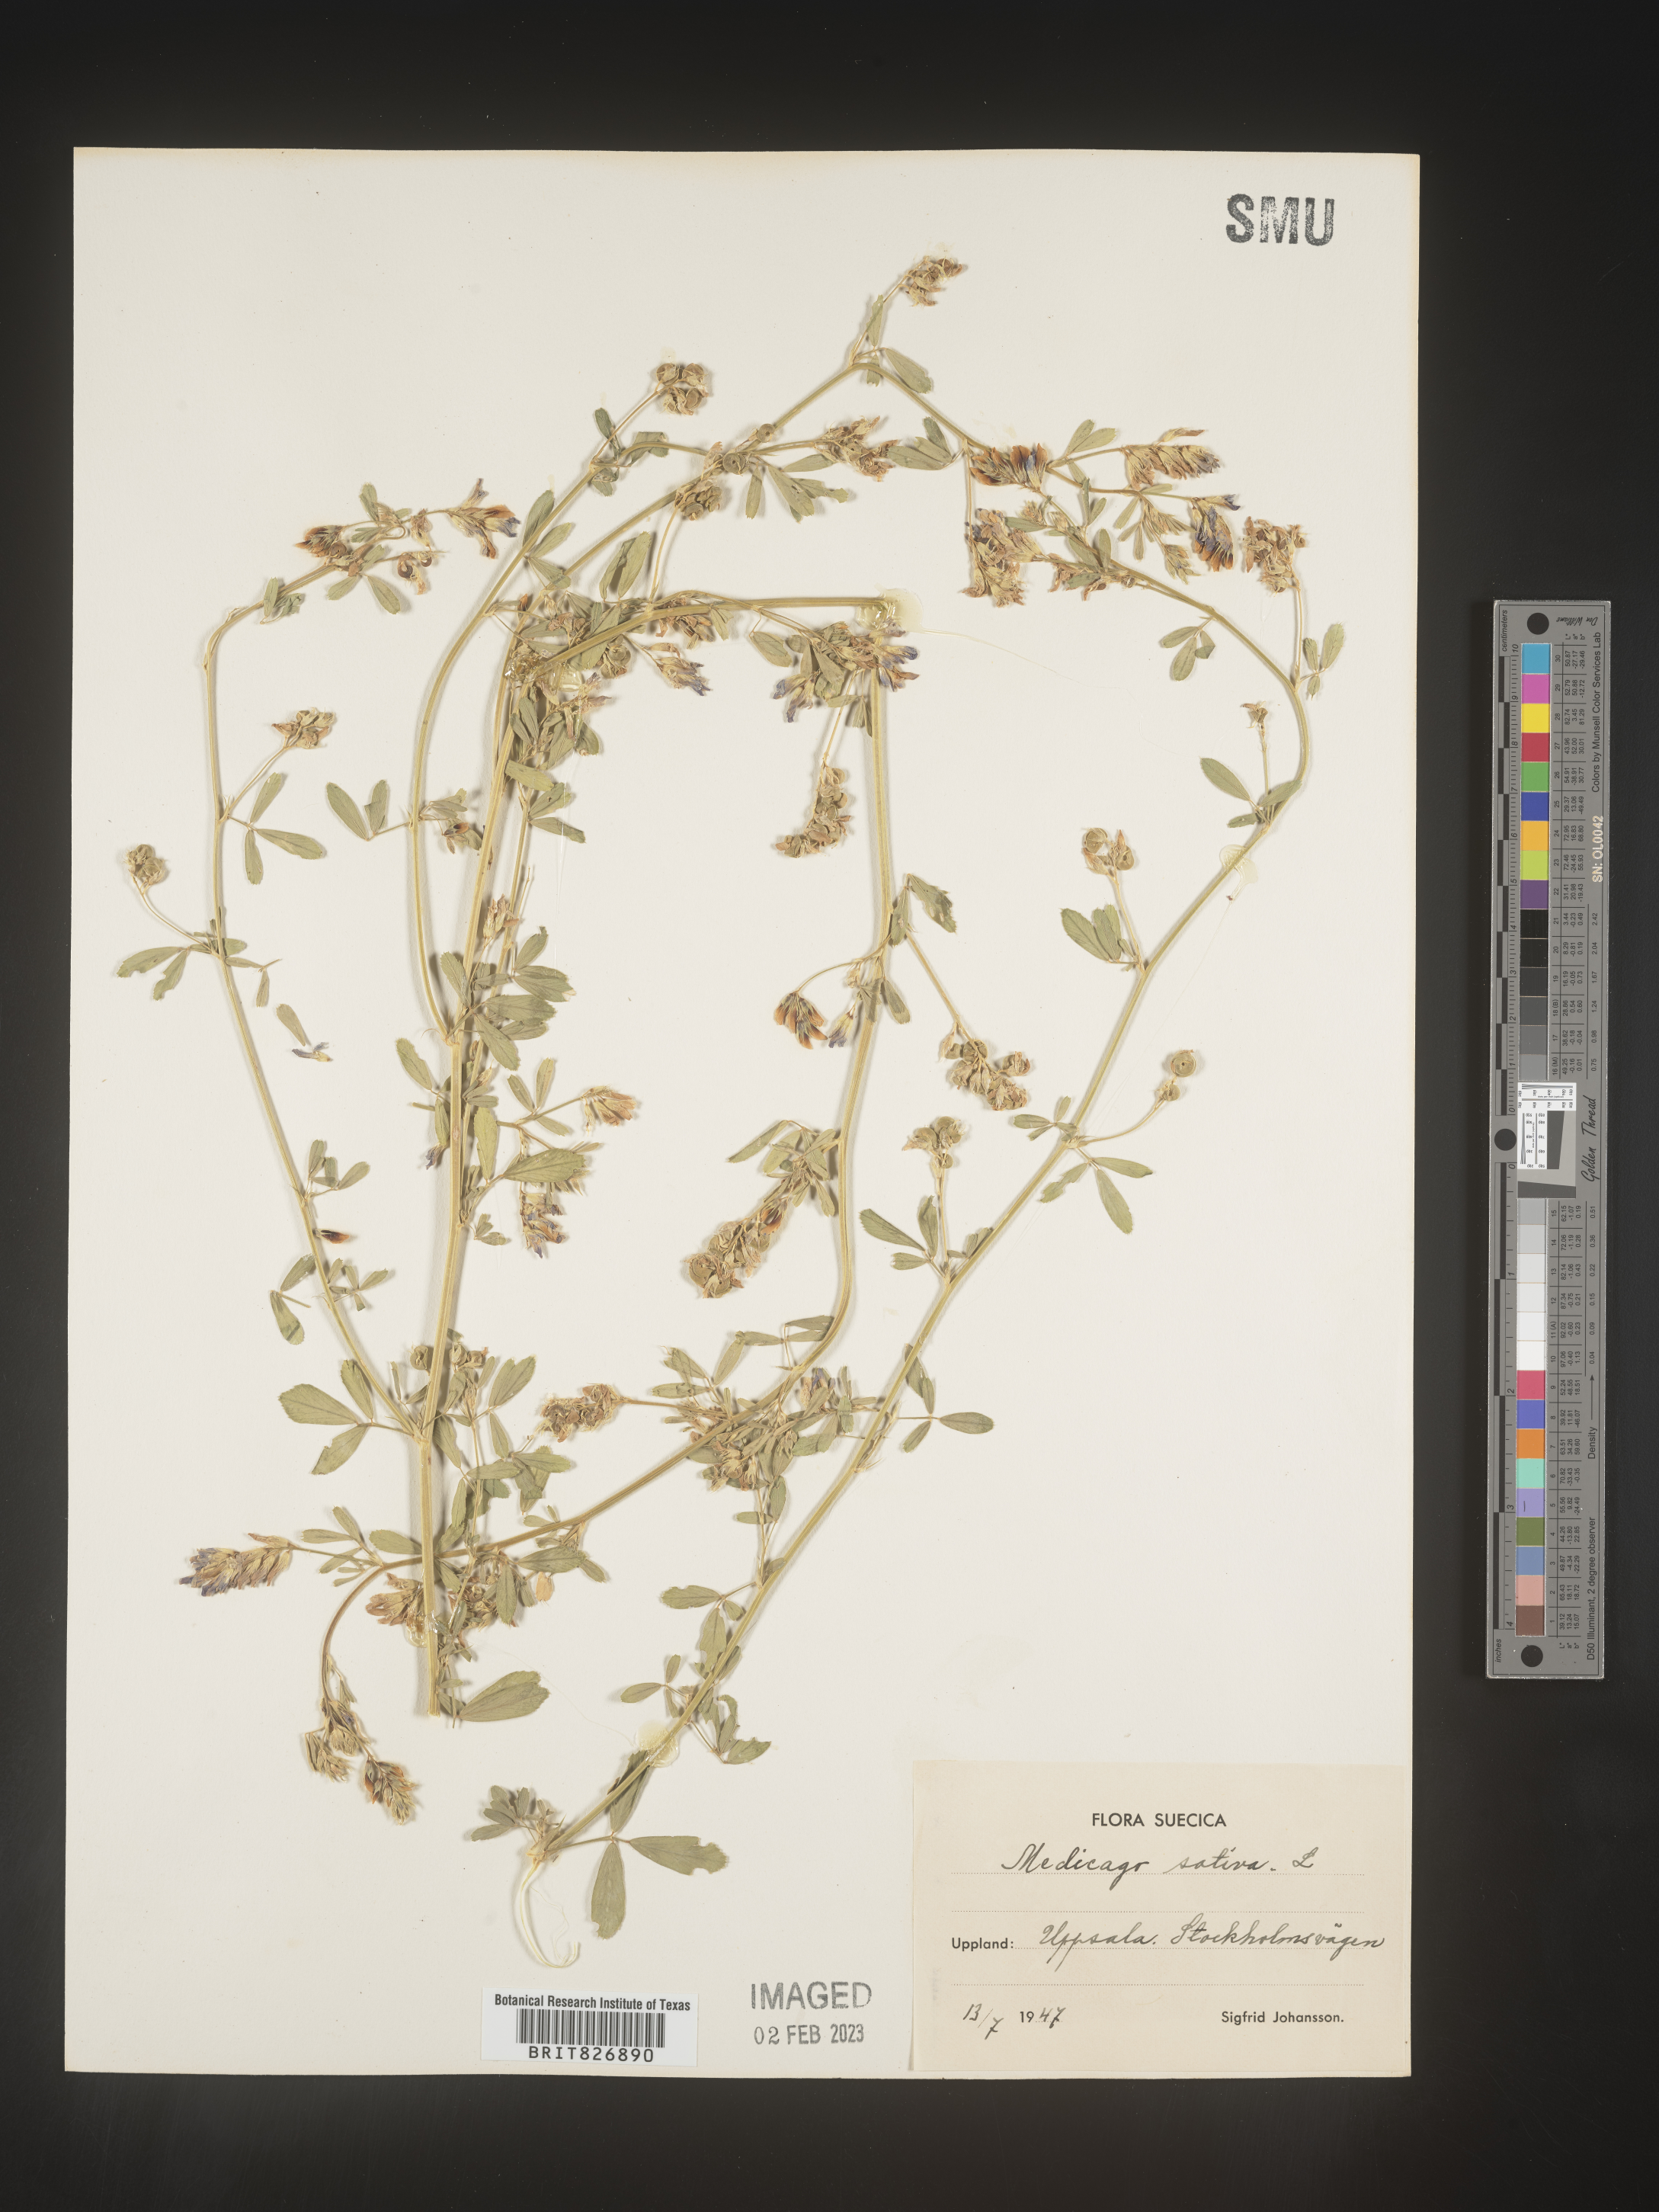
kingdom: Plantae
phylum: Tracheophyta
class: Magnoliopsida
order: Fabales
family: Fabaceae
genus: Medicago
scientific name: Medicago
